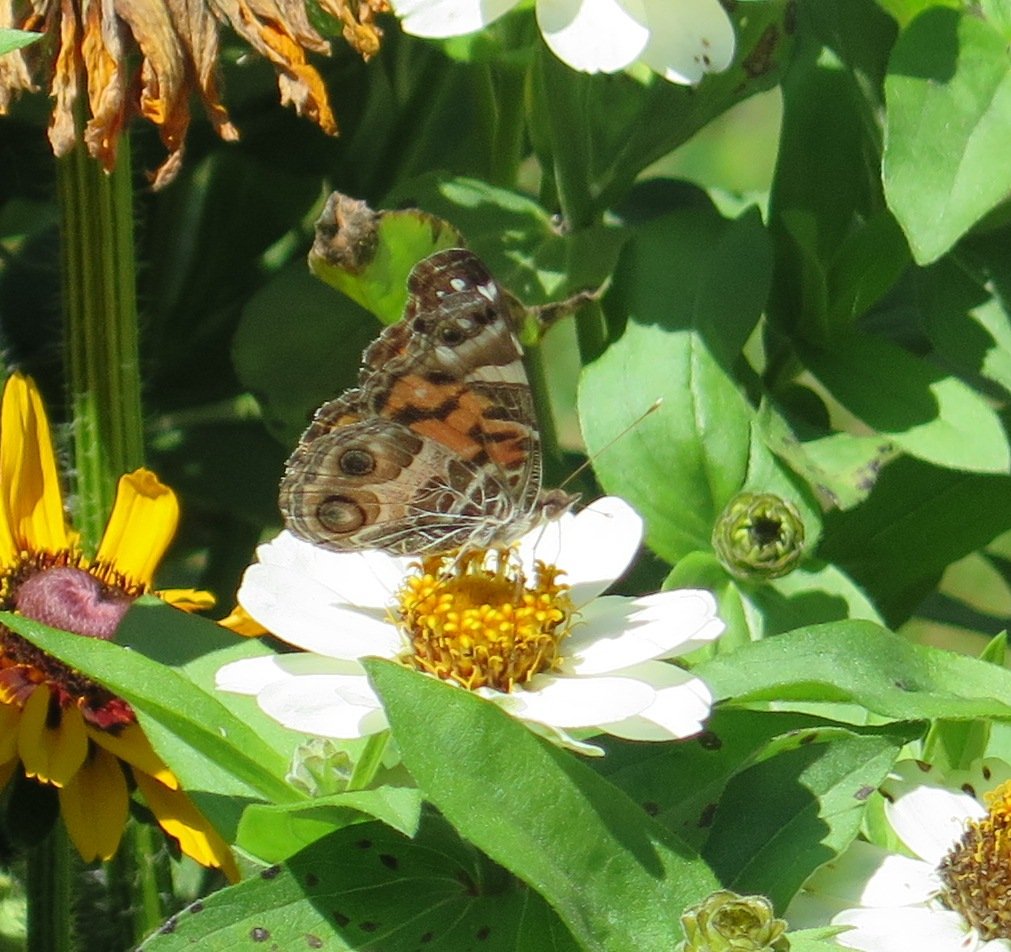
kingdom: Animalia
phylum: Arthropoda
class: Insecta
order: Lepidoptera
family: Nymphalidae
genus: Vanessa
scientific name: Vanessa virginiensis
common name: American Lady
